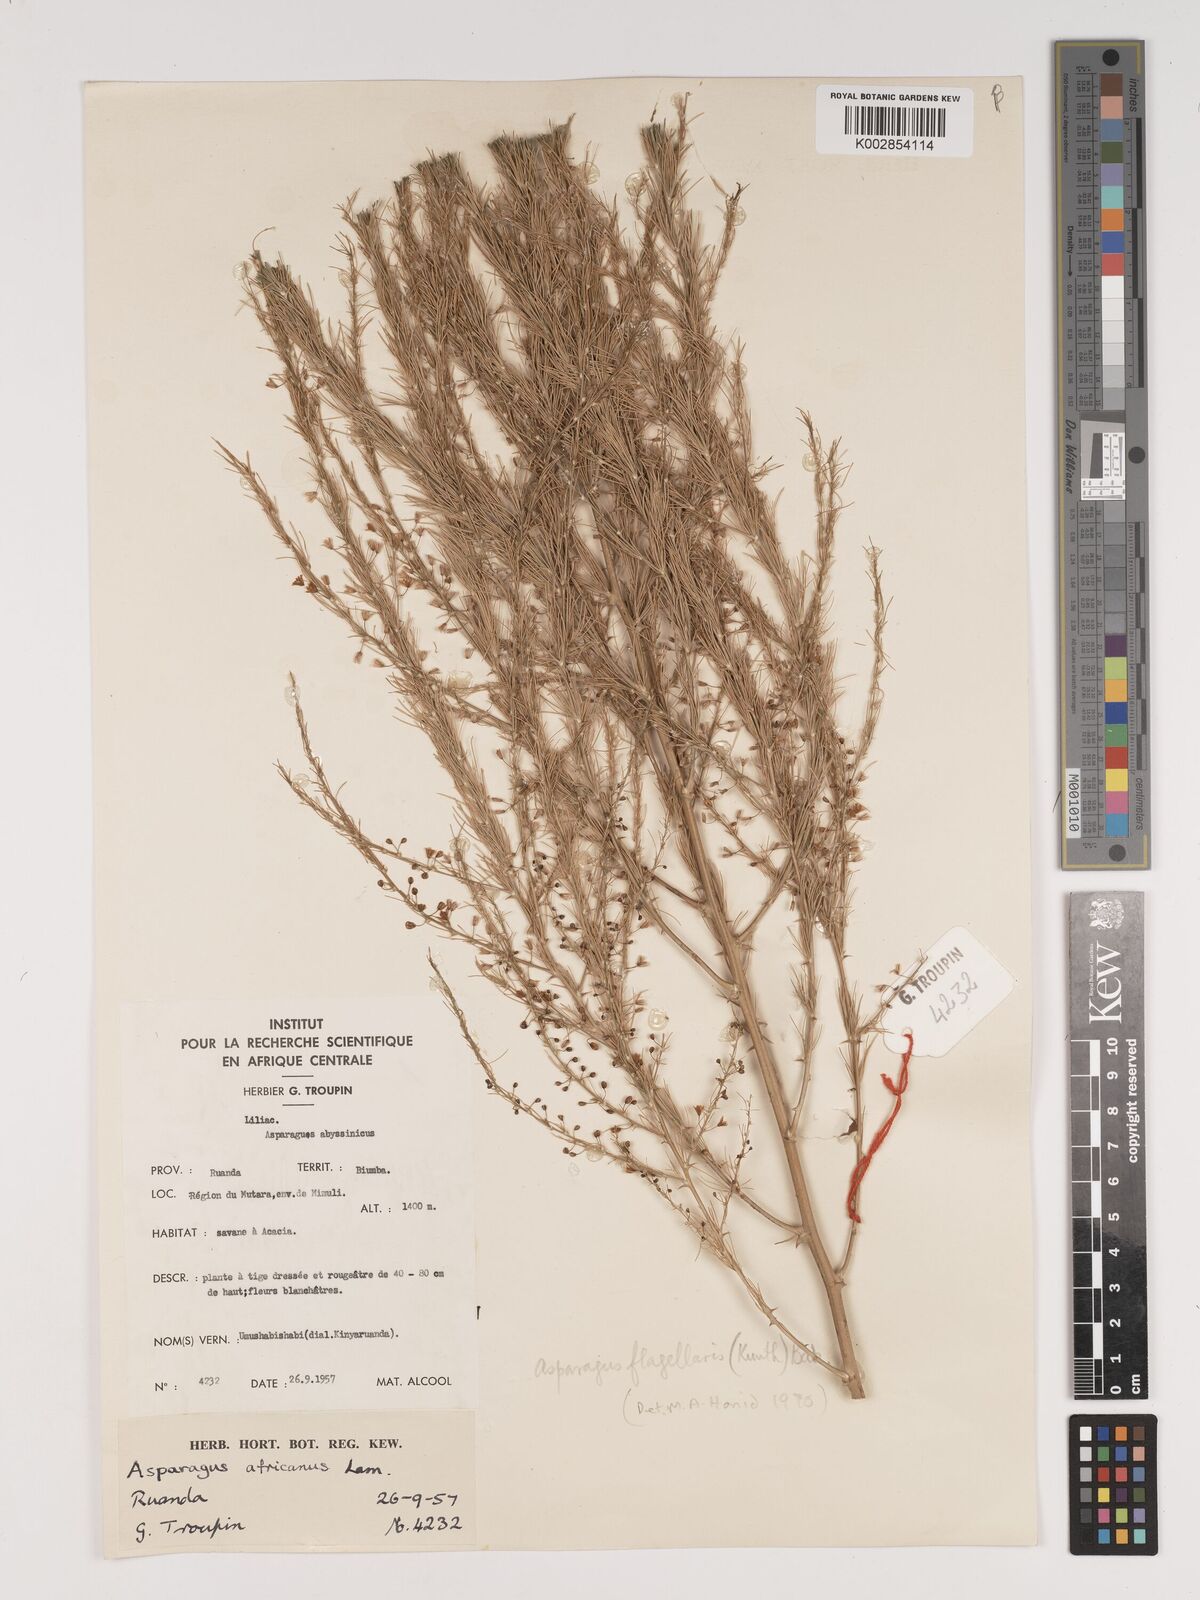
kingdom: Plantae
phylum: Tracheophyta
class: Liliopsida
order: Asparagales
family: Asparagaceae
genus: Asparagus
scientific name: Asparagus flagellaris
